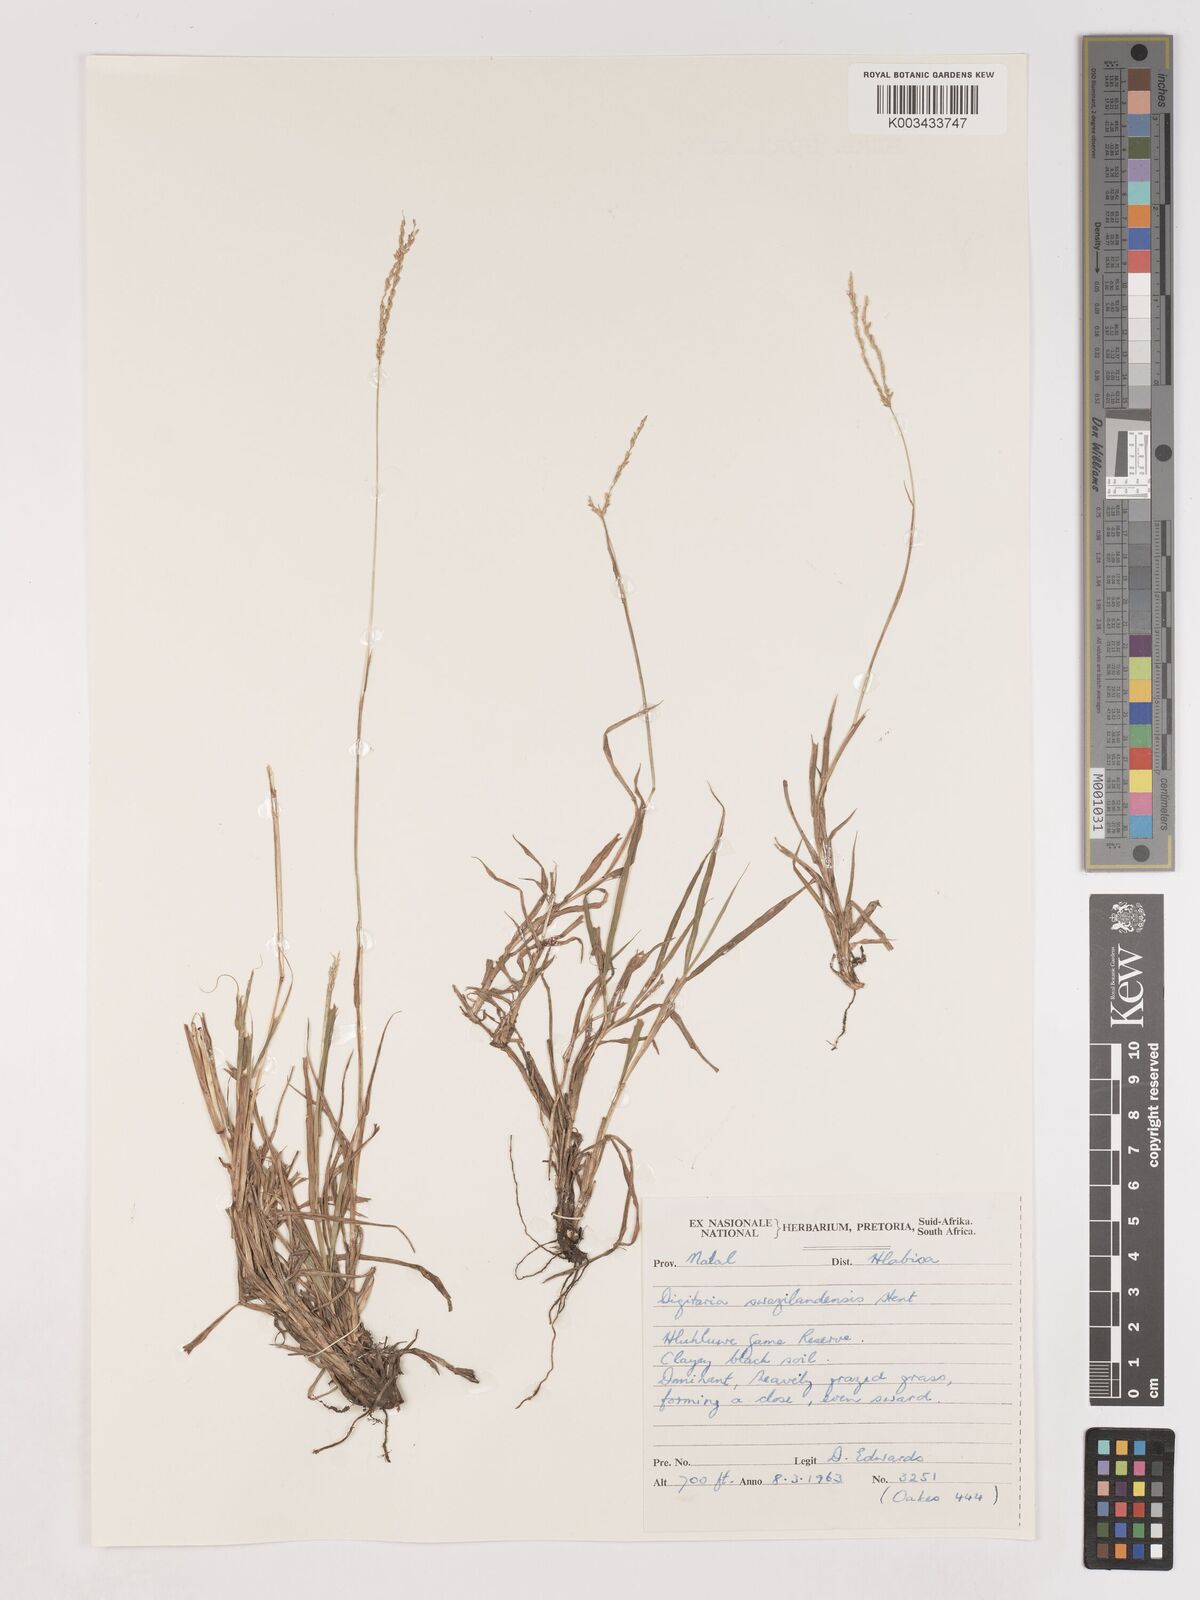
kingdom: Plantae
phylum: Tracheophyta
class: Liliopsida
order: Poales
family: Poaceae
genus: Digitaria
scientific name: Digitaria didactyla
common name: Blue couch
